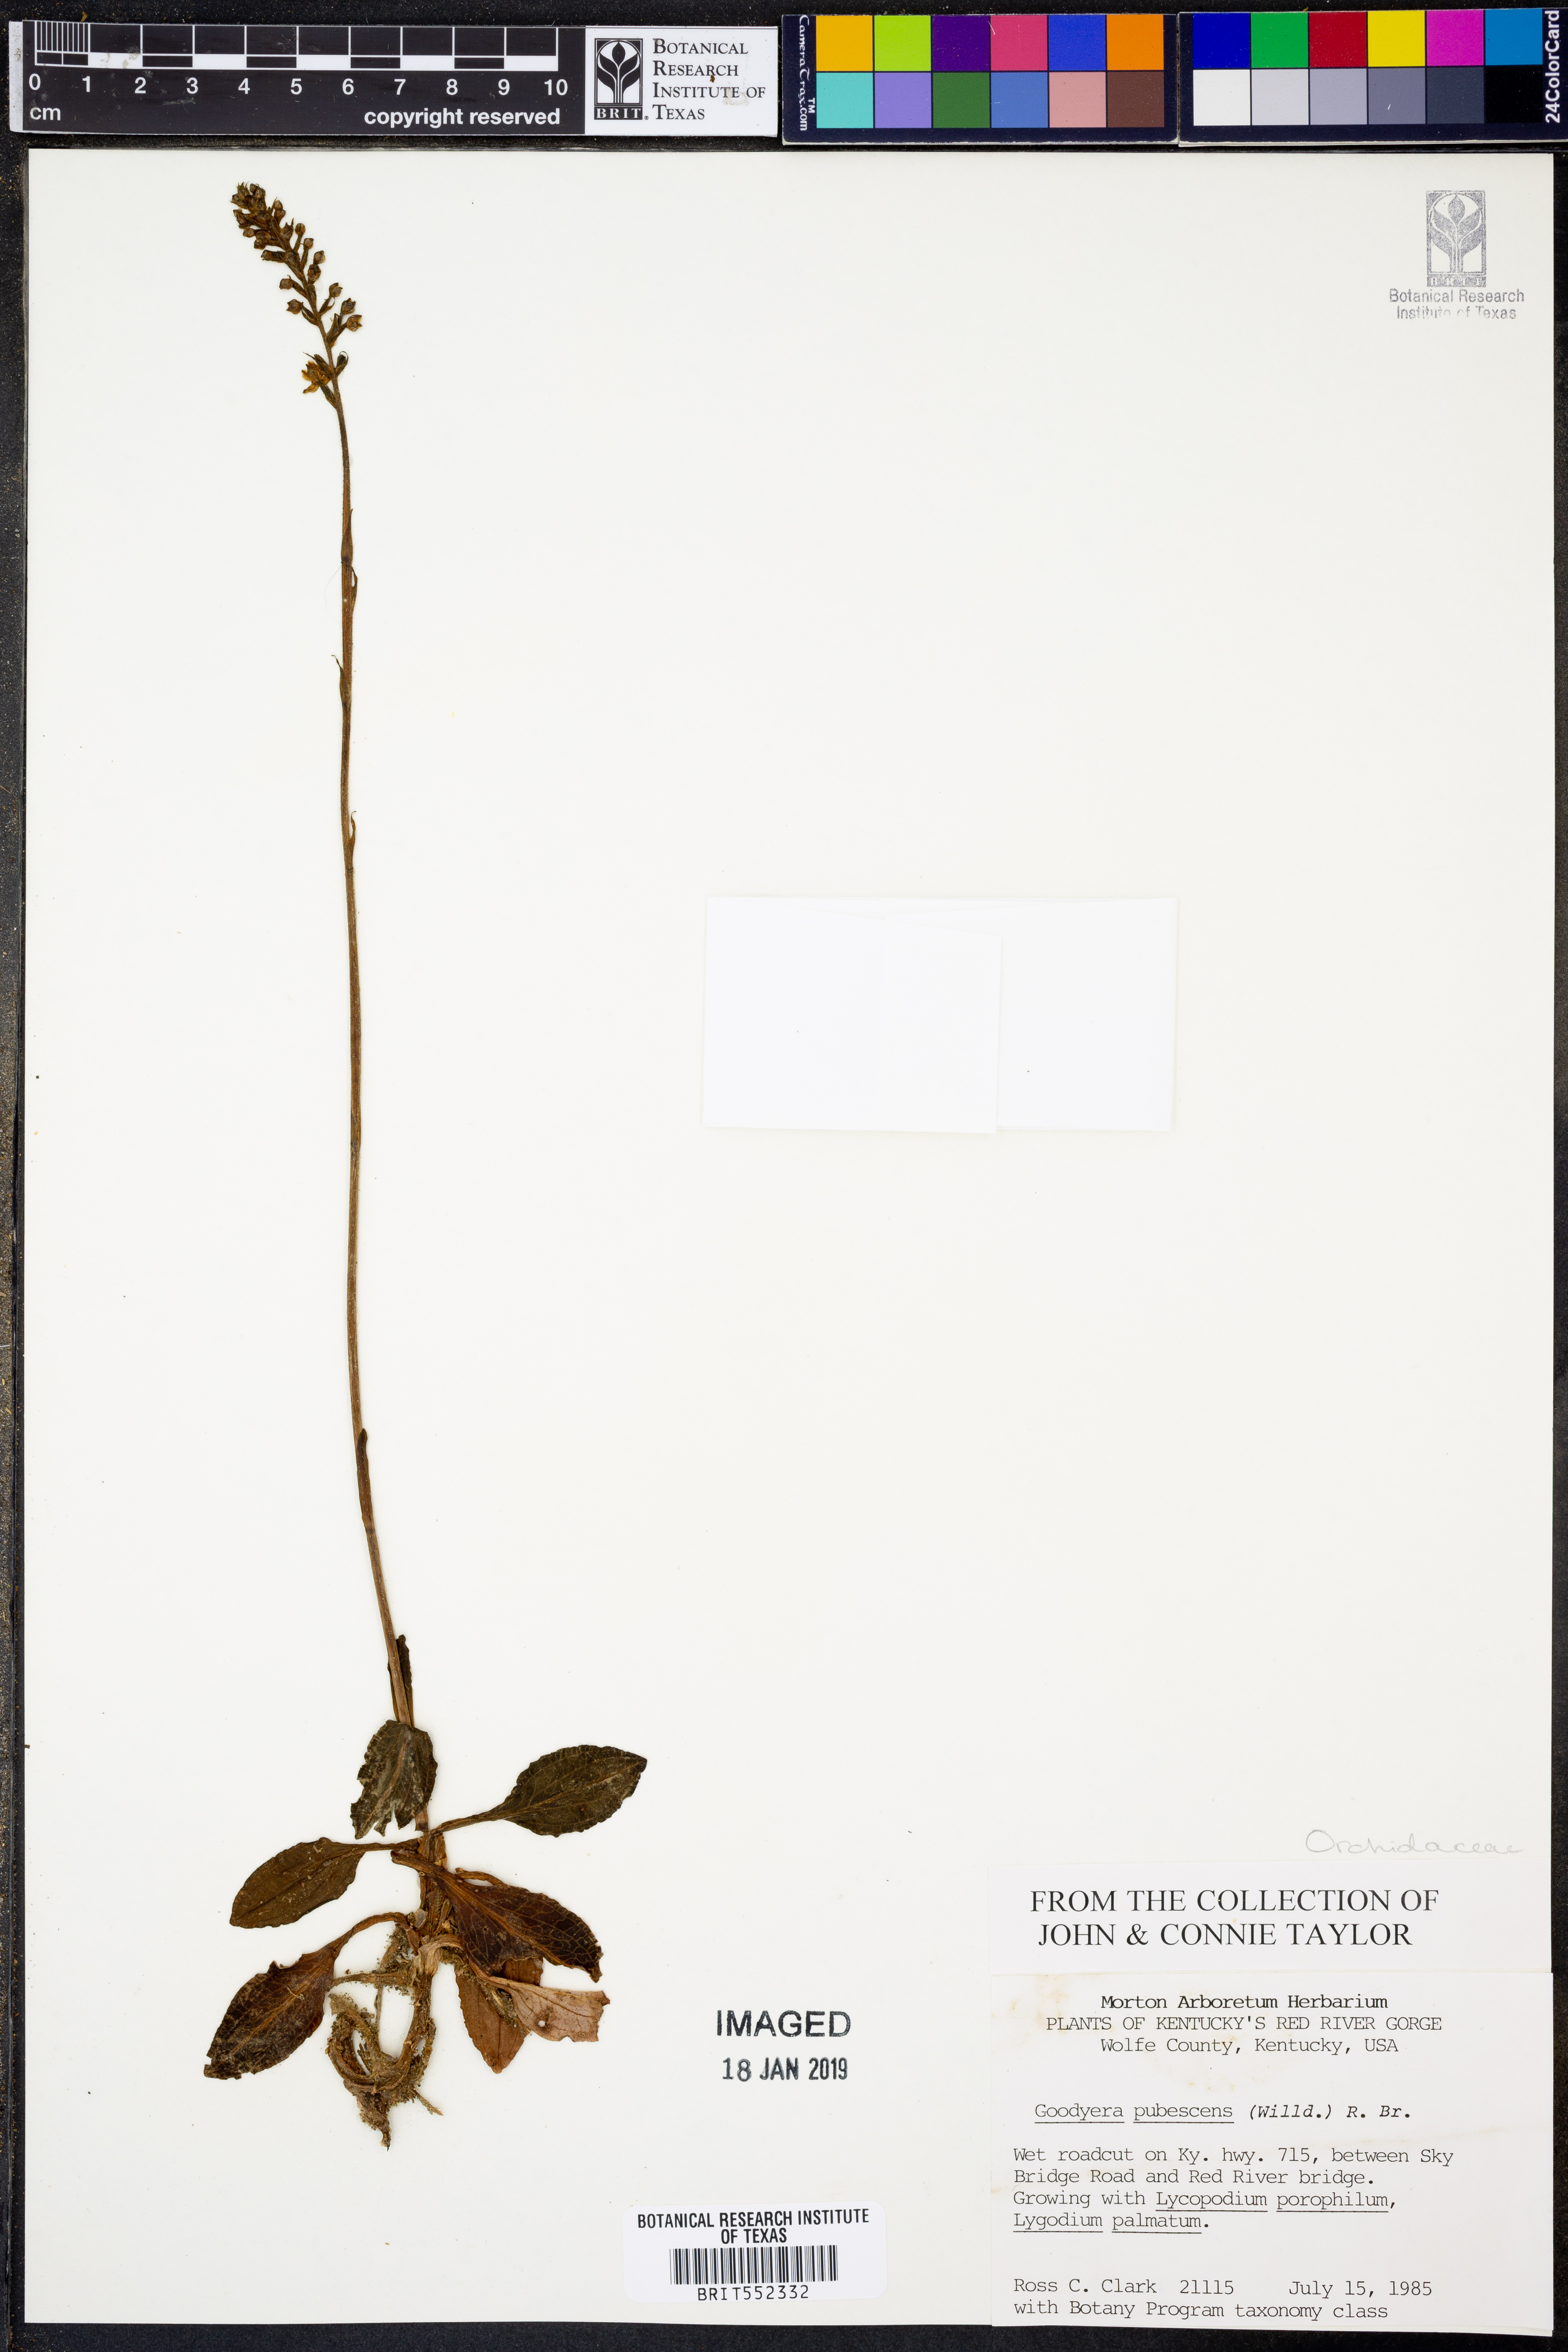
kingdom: Plantae
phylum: Tracheophyta
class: Liliopsida
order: Asparagales
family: Orchidaceae
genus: Goodyera
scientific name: Goodyera pubescens
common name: Downy rattlesnake-plantain
